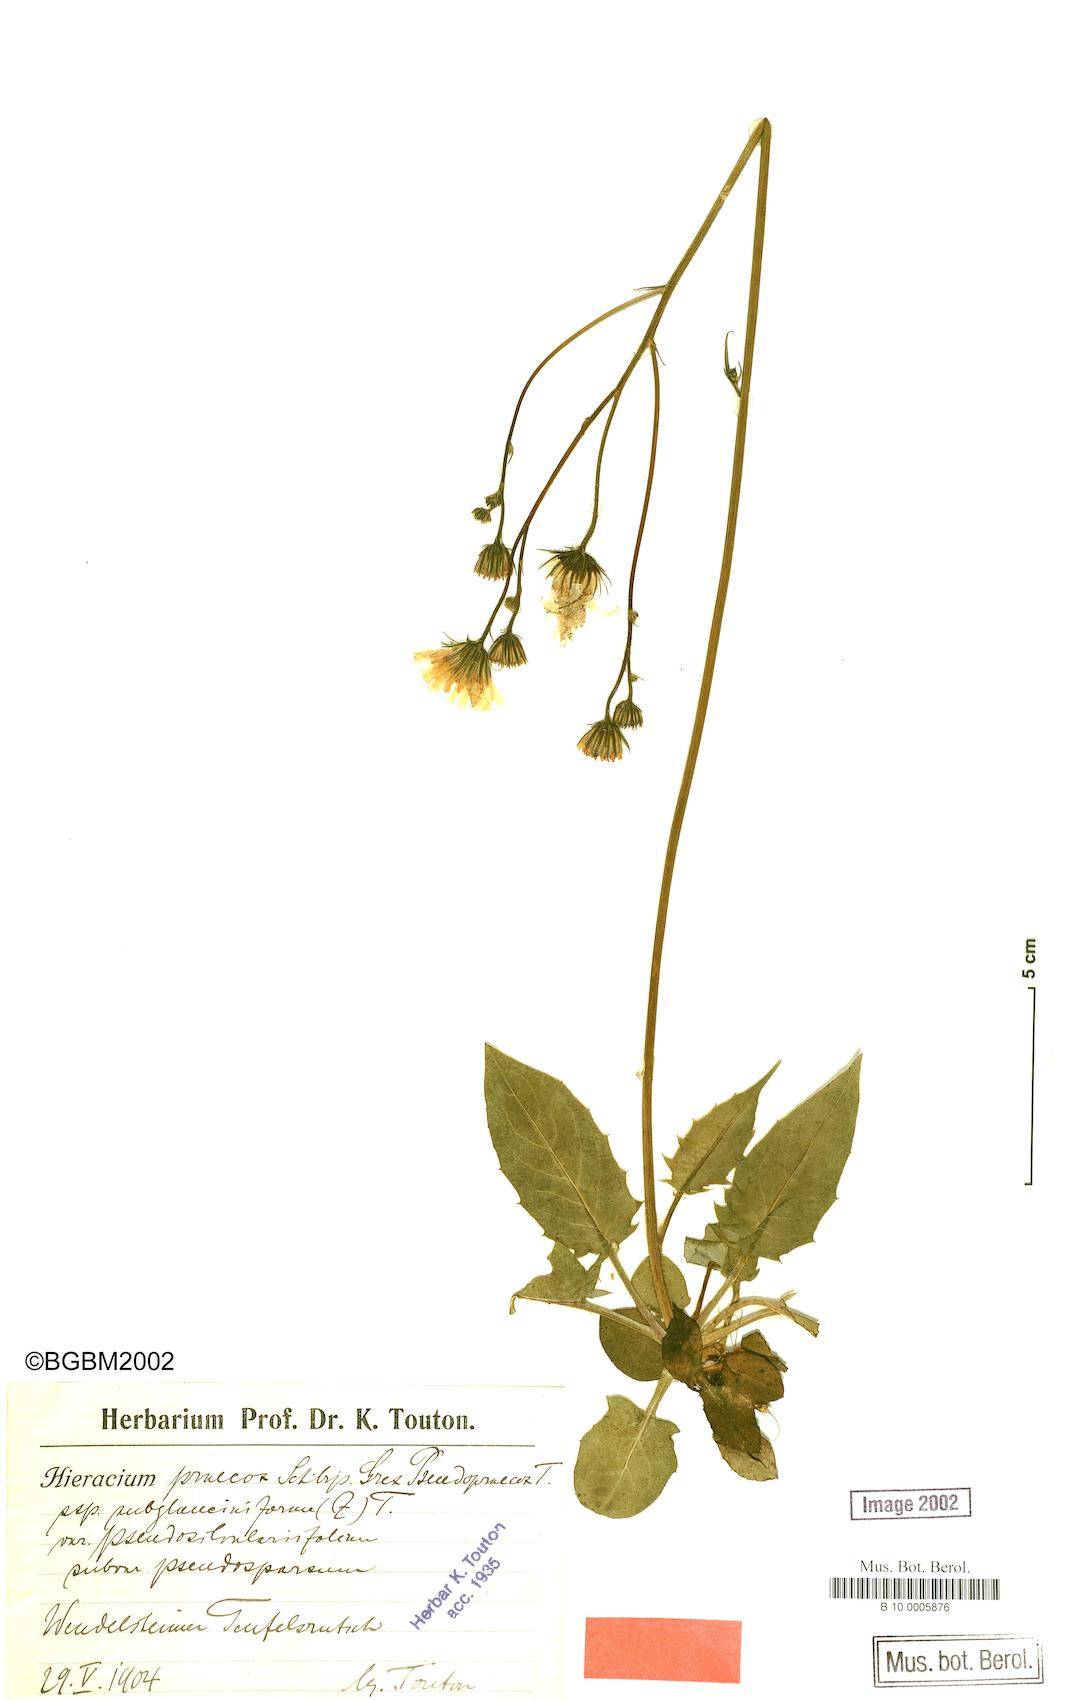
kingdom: Plantae
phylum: Tracheophyta
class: Magnoliopsida
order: Asterales
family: Asteraceae
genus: Hieracium
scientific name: Hieracium praecox
